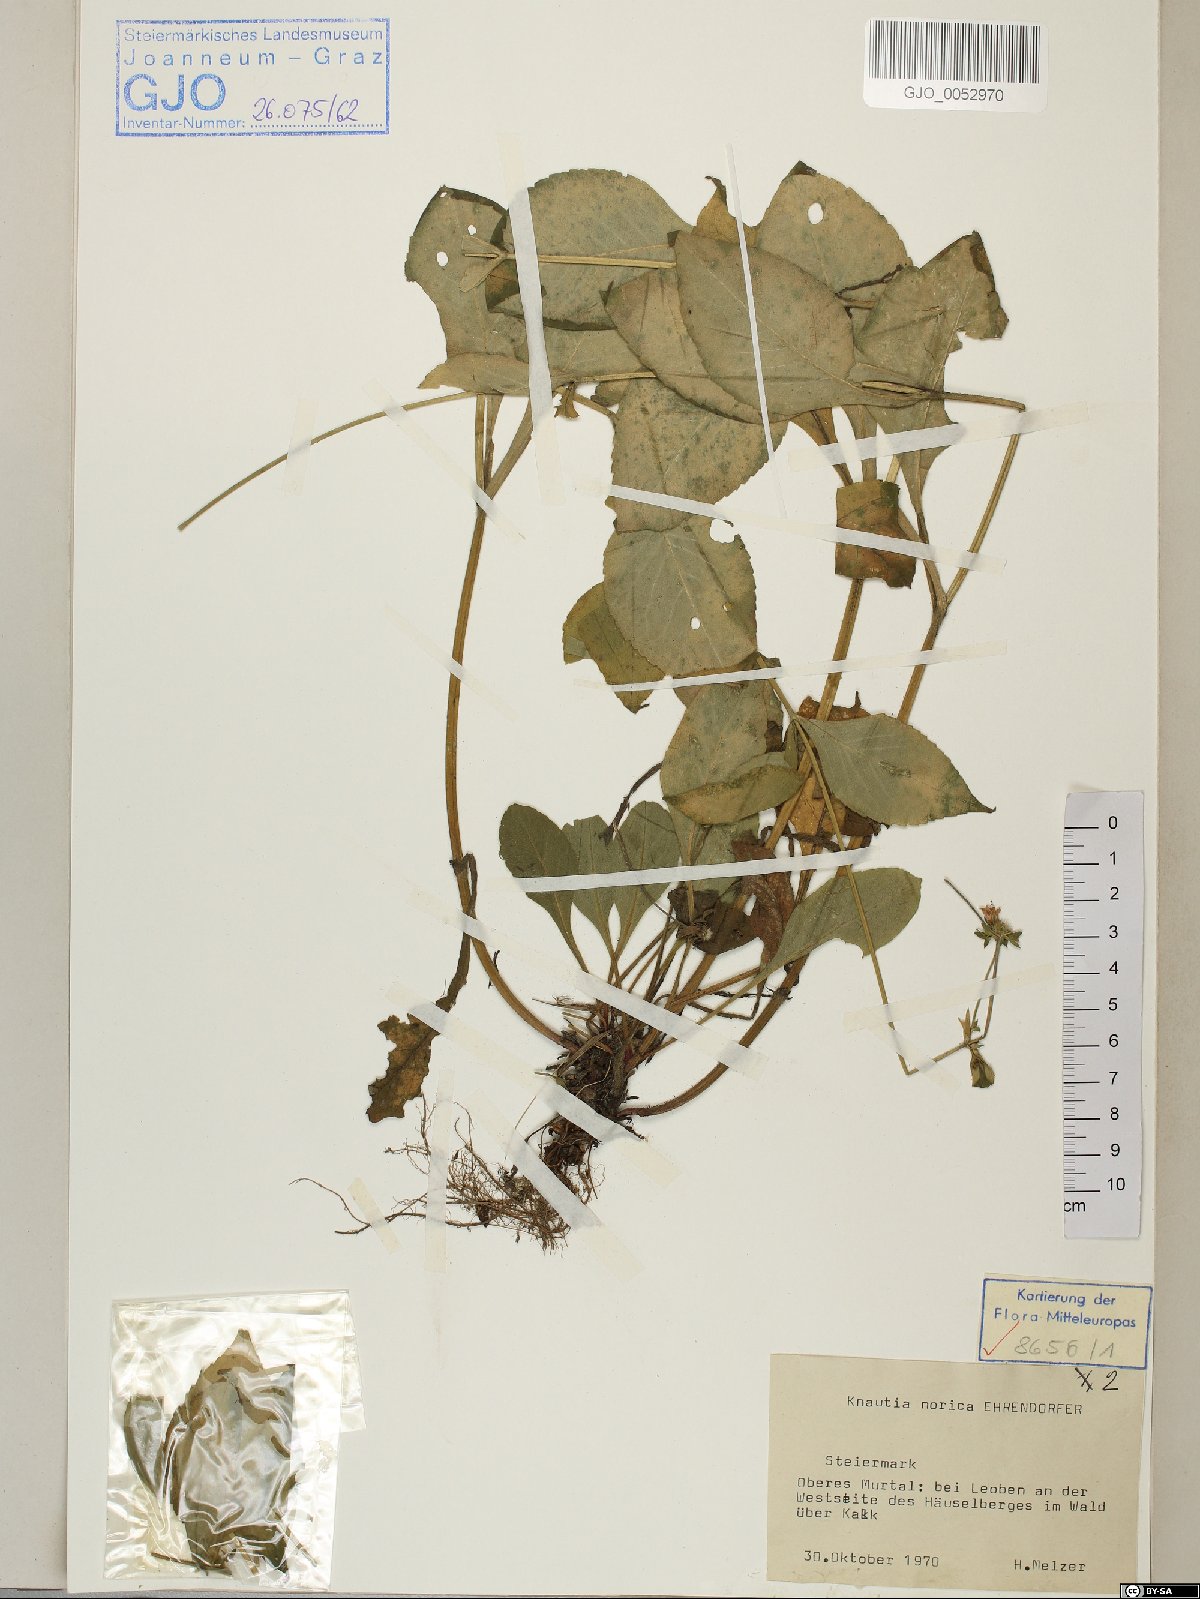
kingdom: Plantae
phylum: Tracheophyta
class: Magnoliopsida
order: Dipsacales
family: Caprifoliaceae
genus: Knautia
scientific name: Knautia norica
